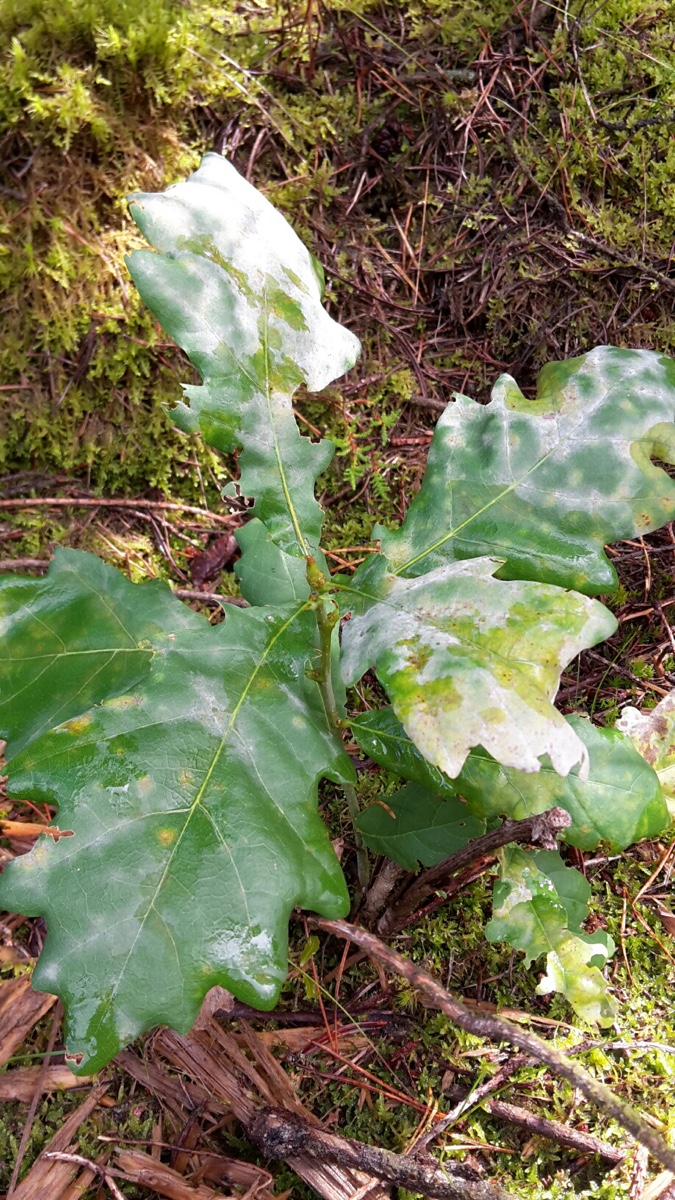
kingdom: Fungi
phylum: Ascomycota
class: Leotiomycetes
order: Helotiales
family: Erysiphaceae
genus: Erysiphe
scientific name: Erysiphe alphitoides
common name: ege-meldug
